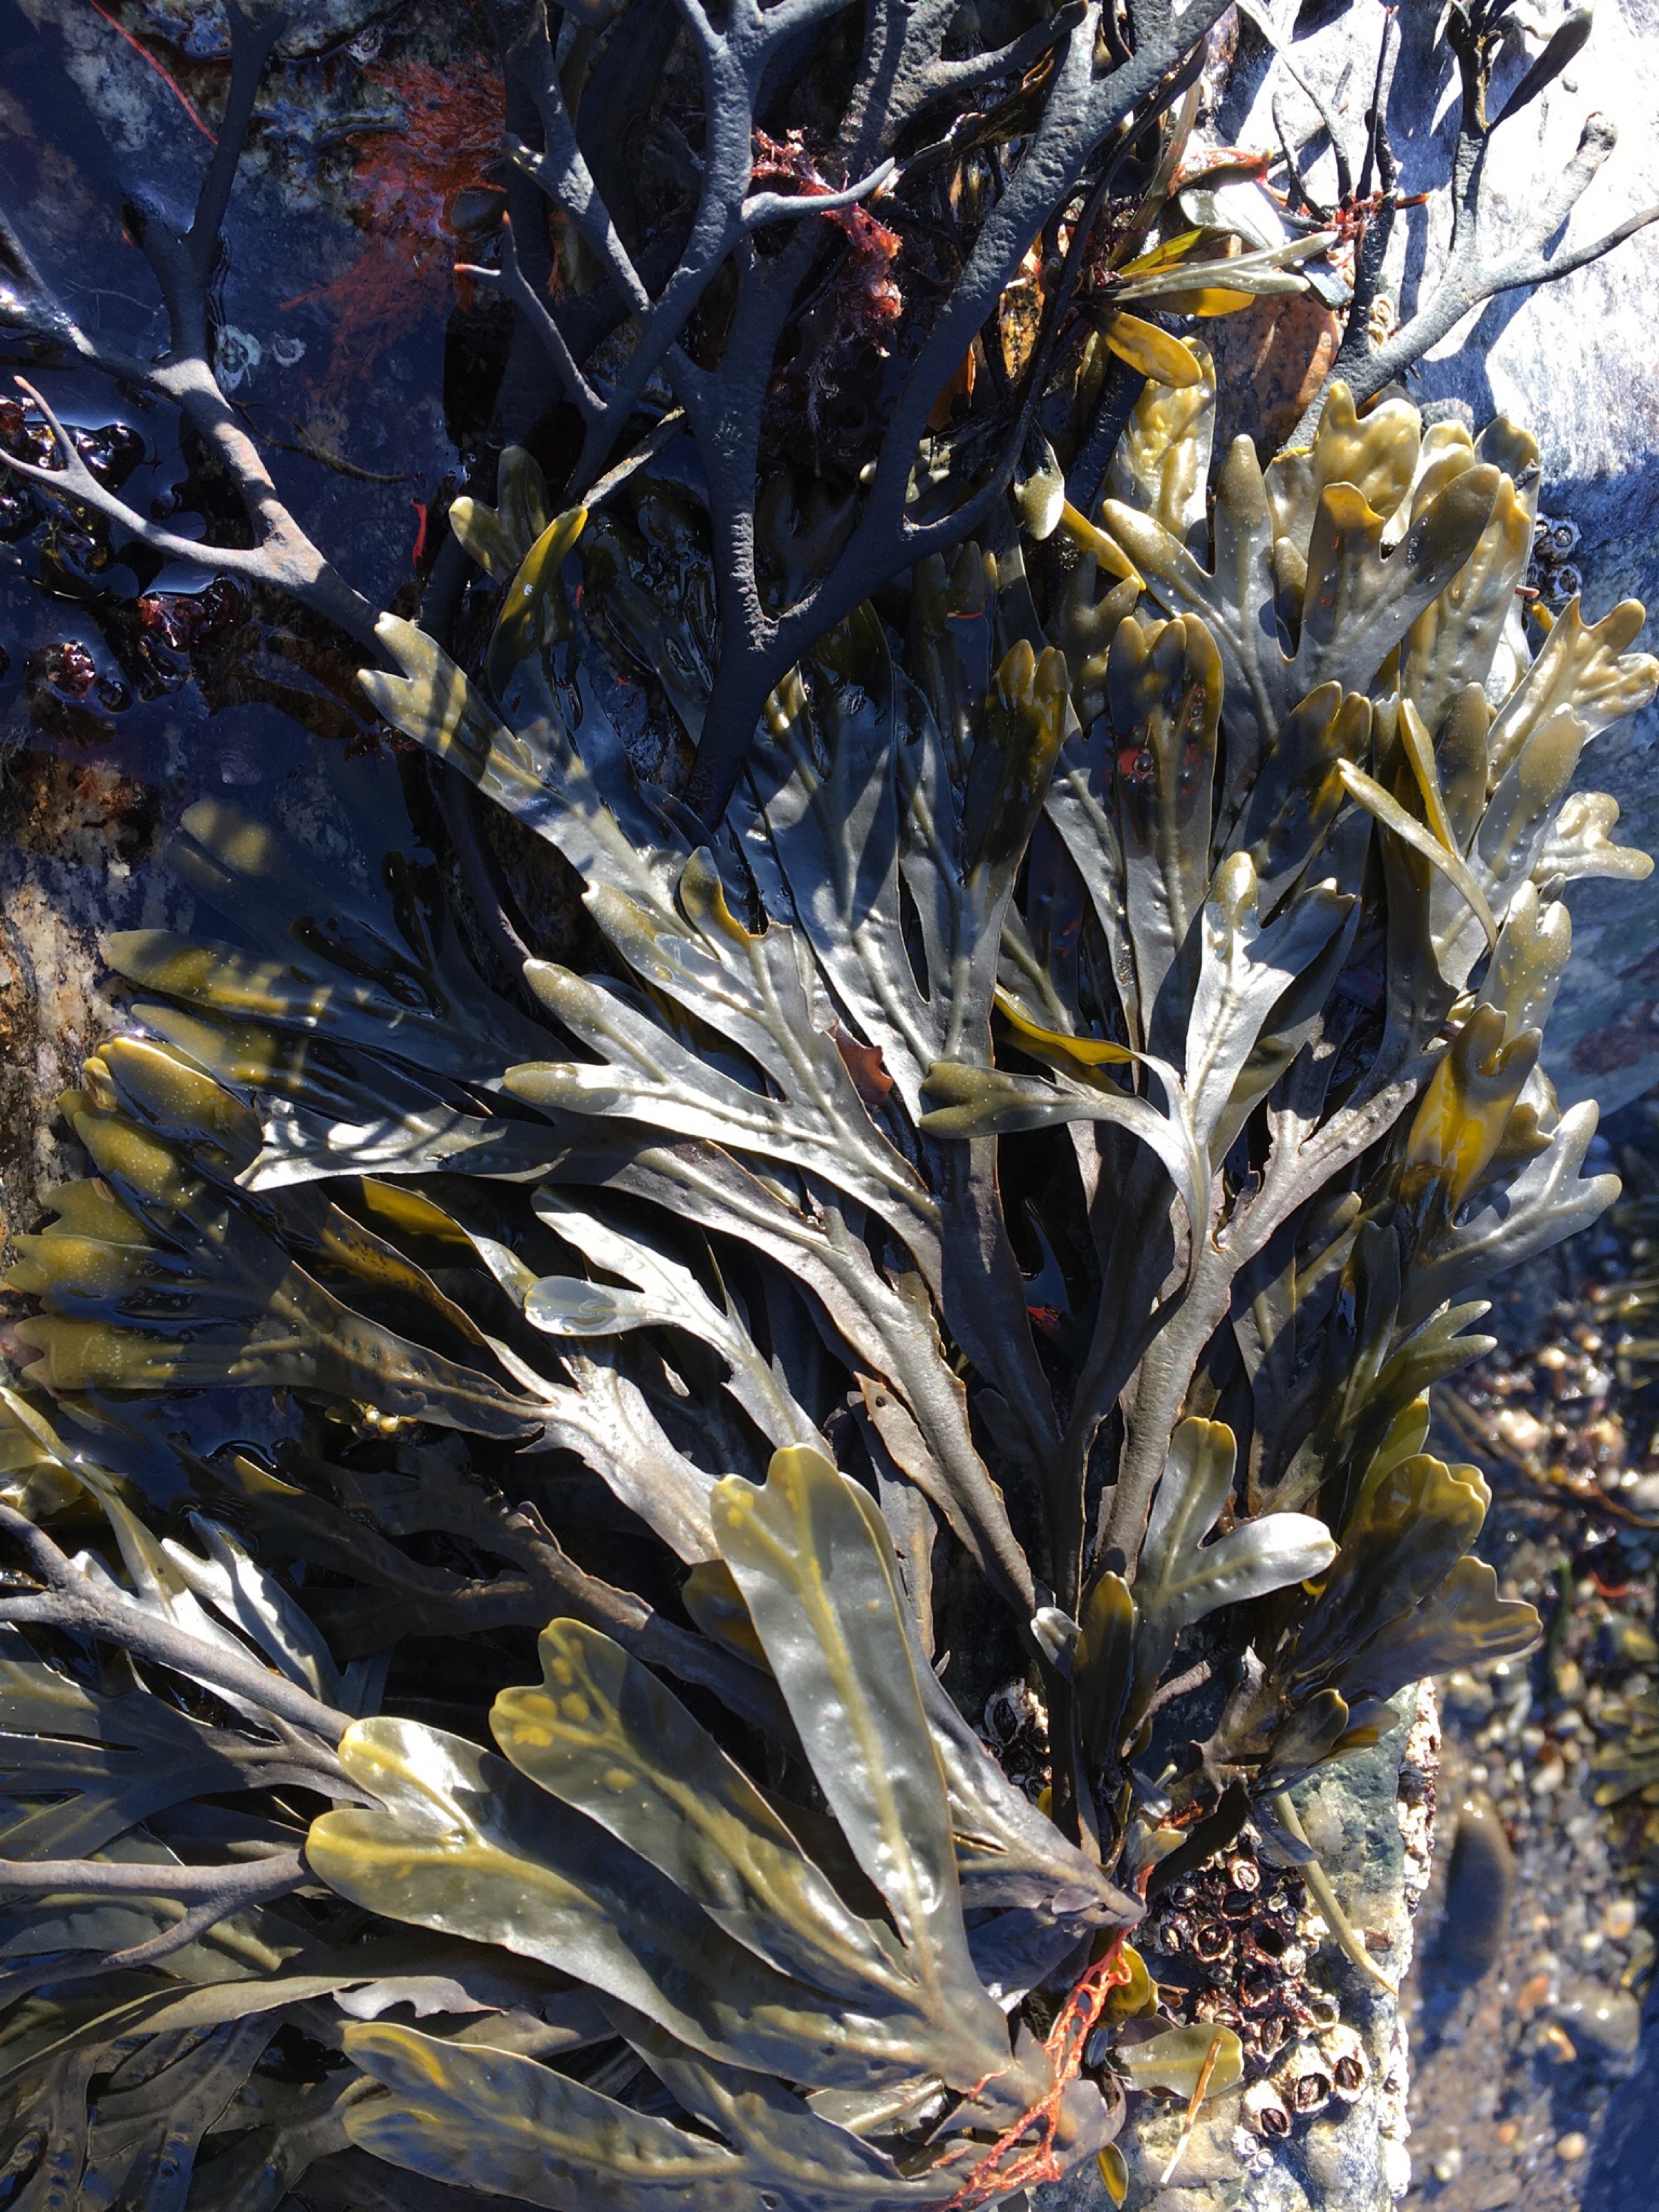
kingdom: Chromista
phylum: Ochrophyta
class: Phaeophyceae
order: Fucales
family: Fucaceae
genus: Ascophyllum
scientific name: Ascophyllum nodosum
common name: Rockweed
